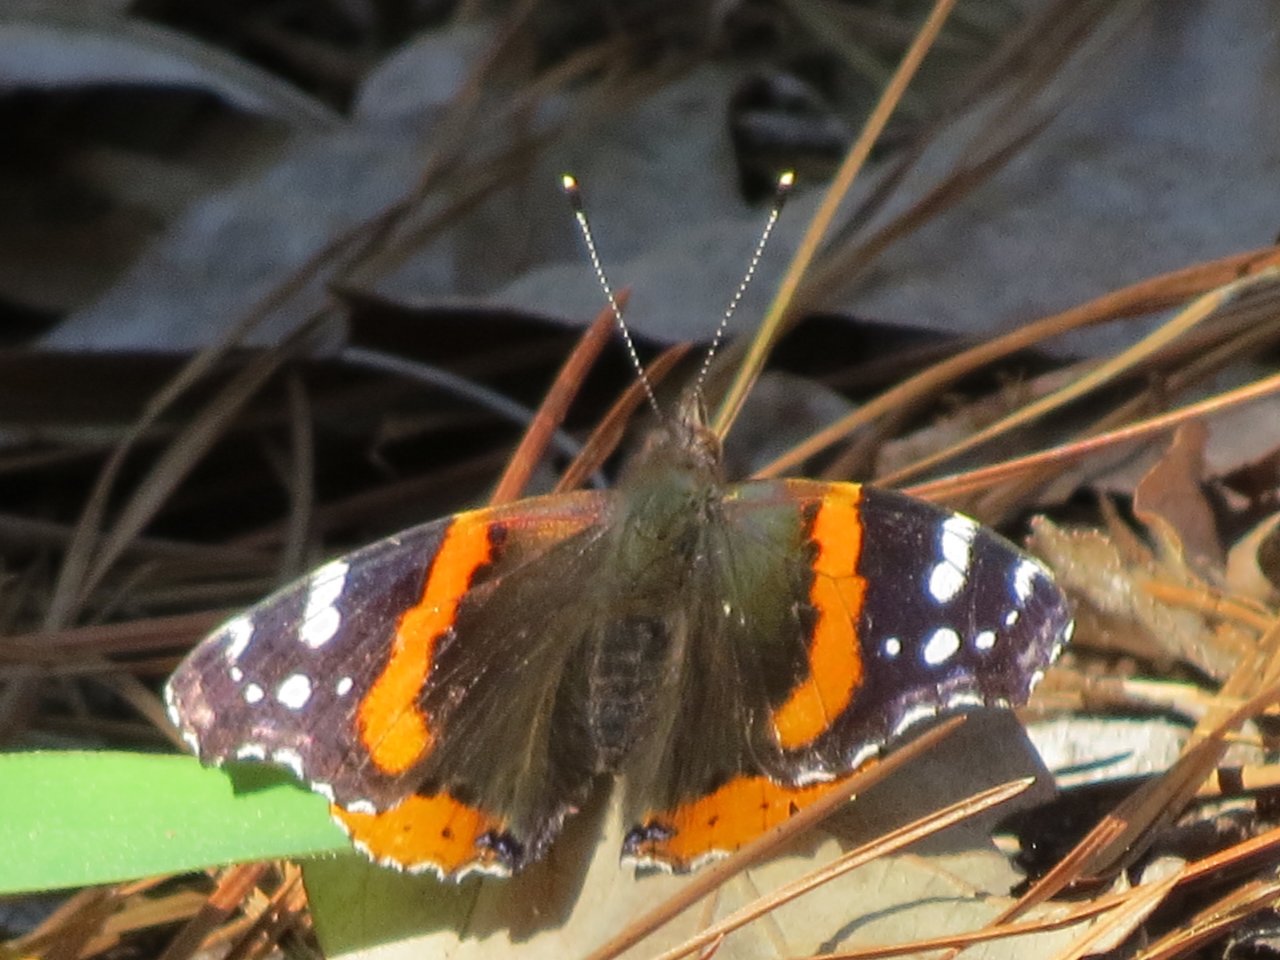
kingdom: Animalia
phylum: Arthropoda
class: Insecta
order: Lepidoptera
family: Nymphalidae
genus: Vanessa
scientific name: Vanessa atalanta
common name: Red Admiral
